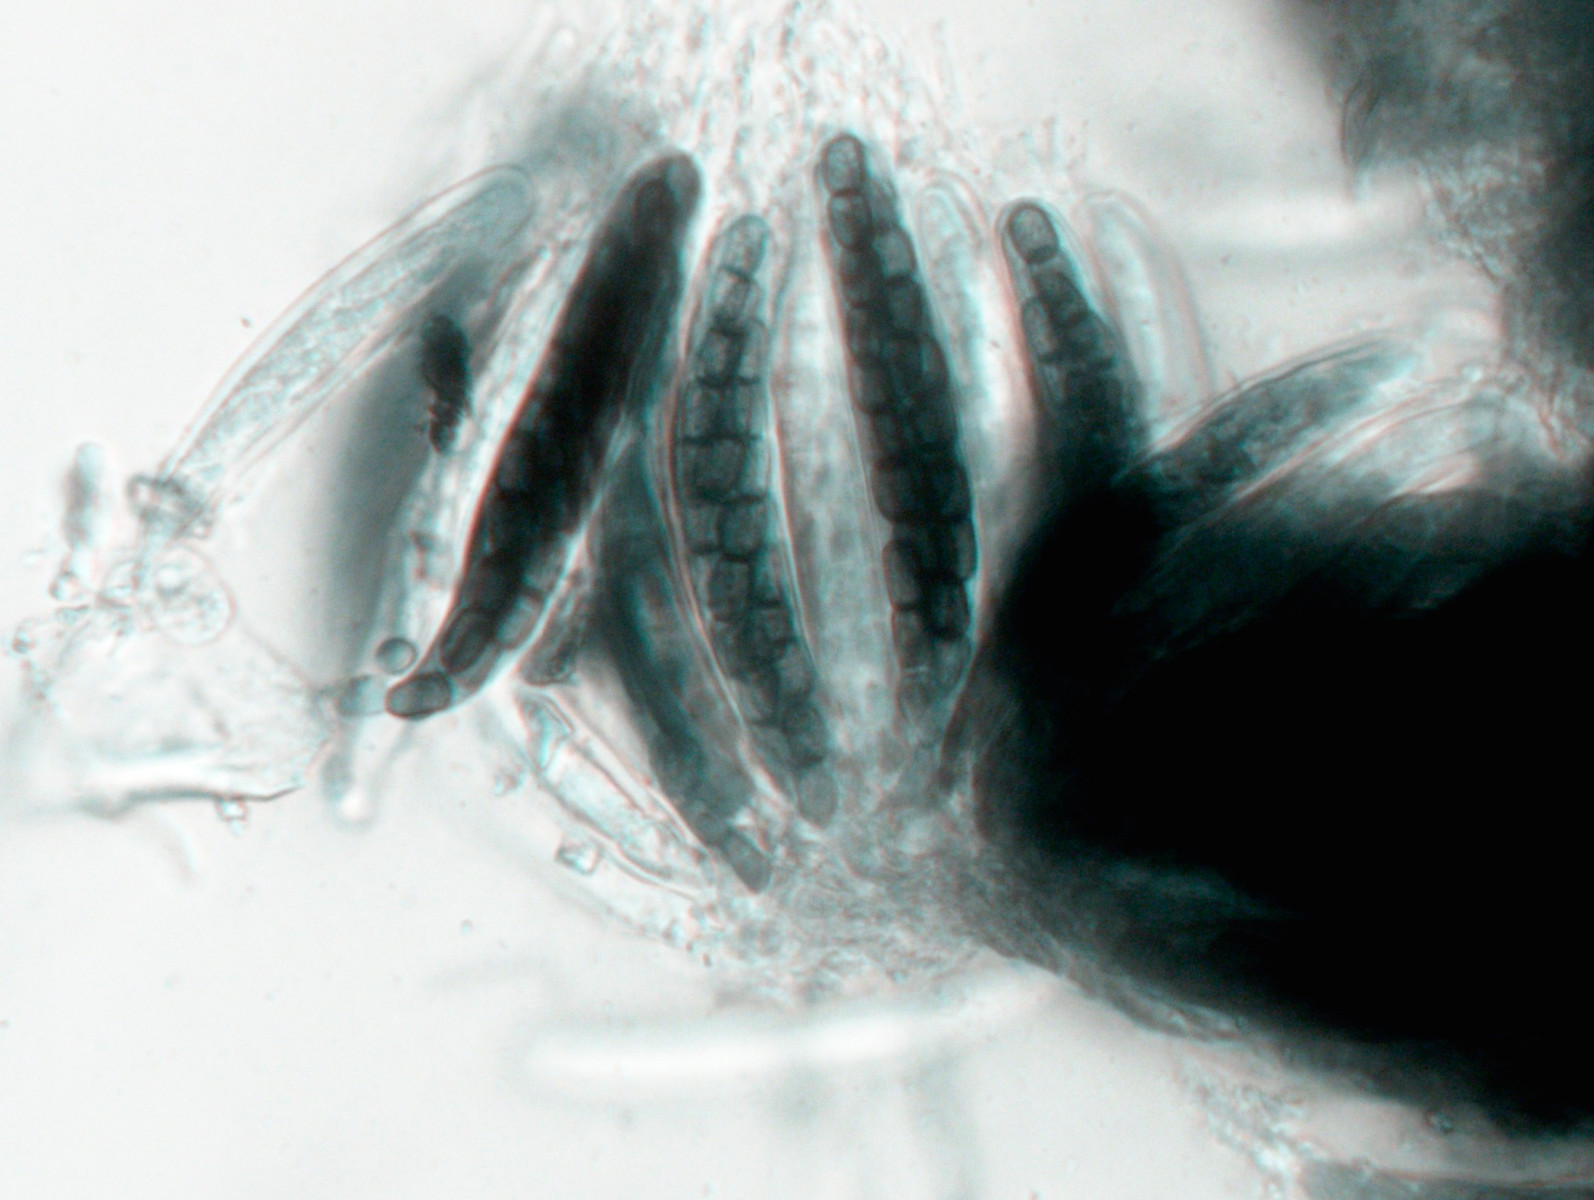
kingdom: Fungi
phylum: Ascomycota
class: Dothideomycetes
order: Pleosporales
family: Sporormiaceae
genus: Sporormiella
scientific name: Sporormiella minima
